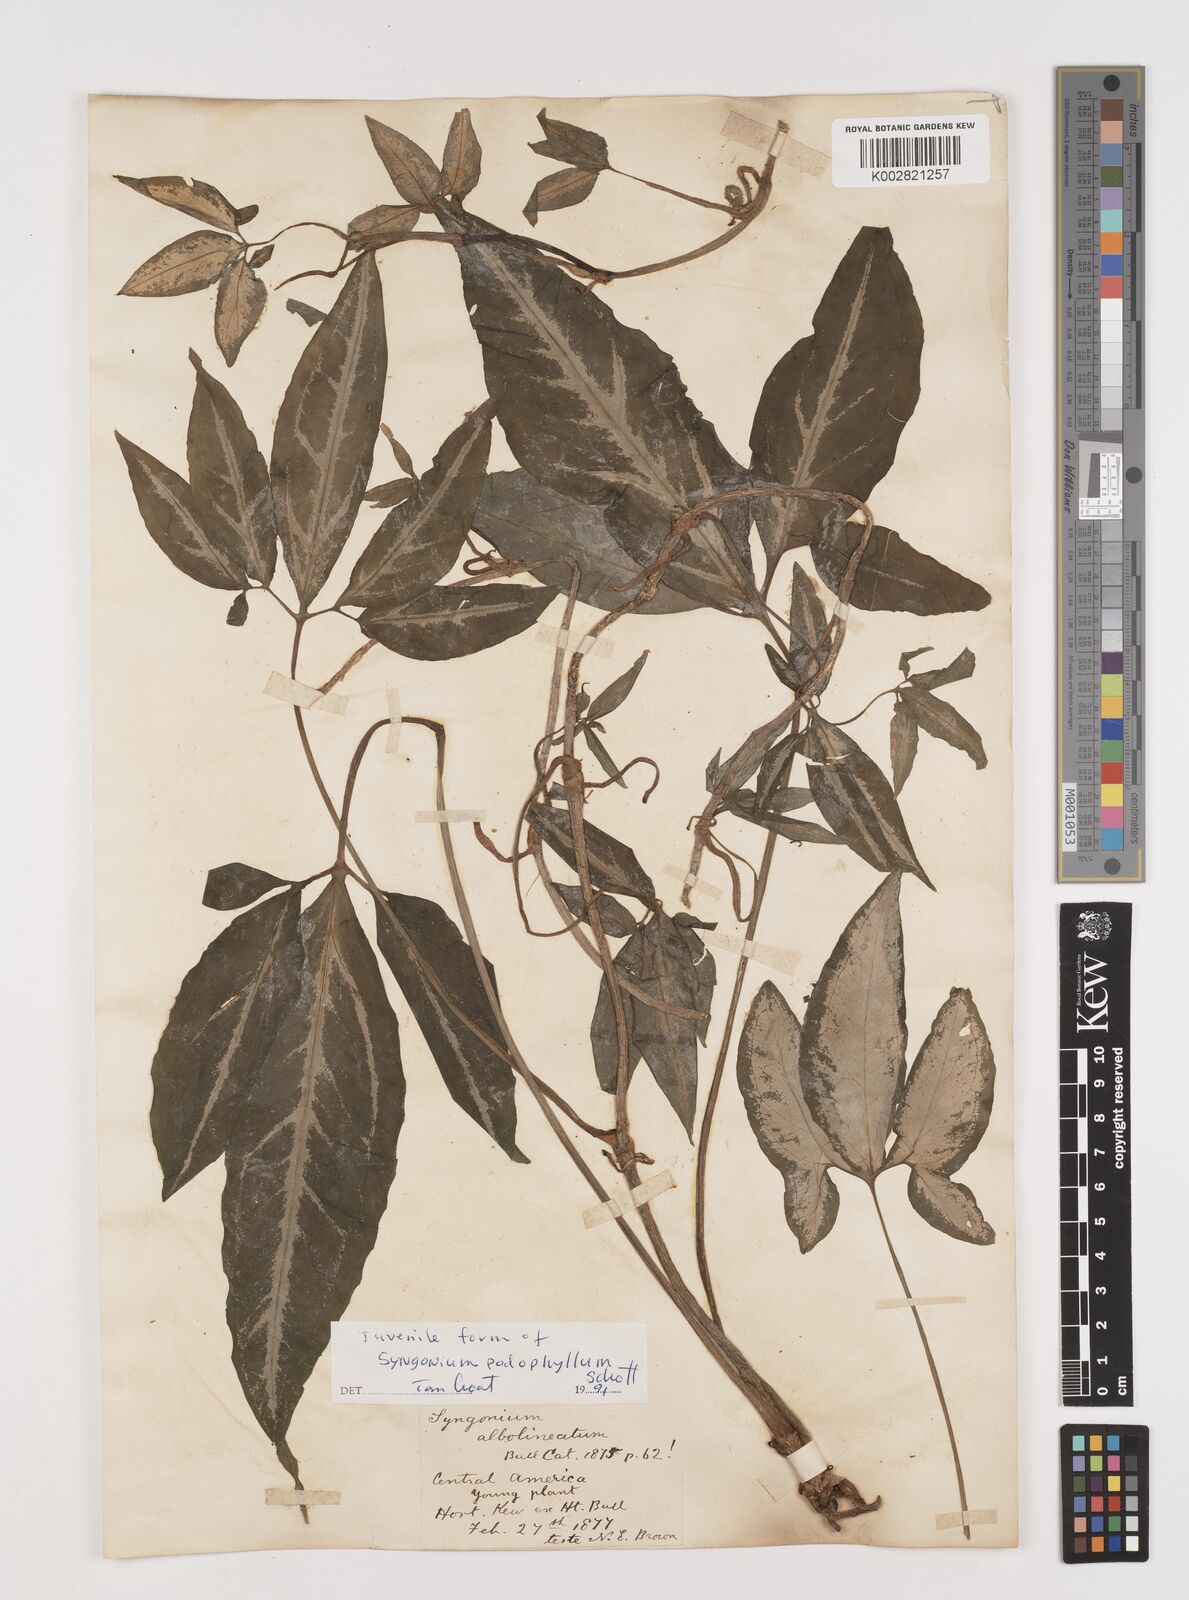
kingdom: Plantae
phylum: Tracheophyta
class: Liliopsida
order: Alismatales
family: Araceae
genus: Syngonium
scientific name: Syngonium podophyllum
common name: American evergreen
